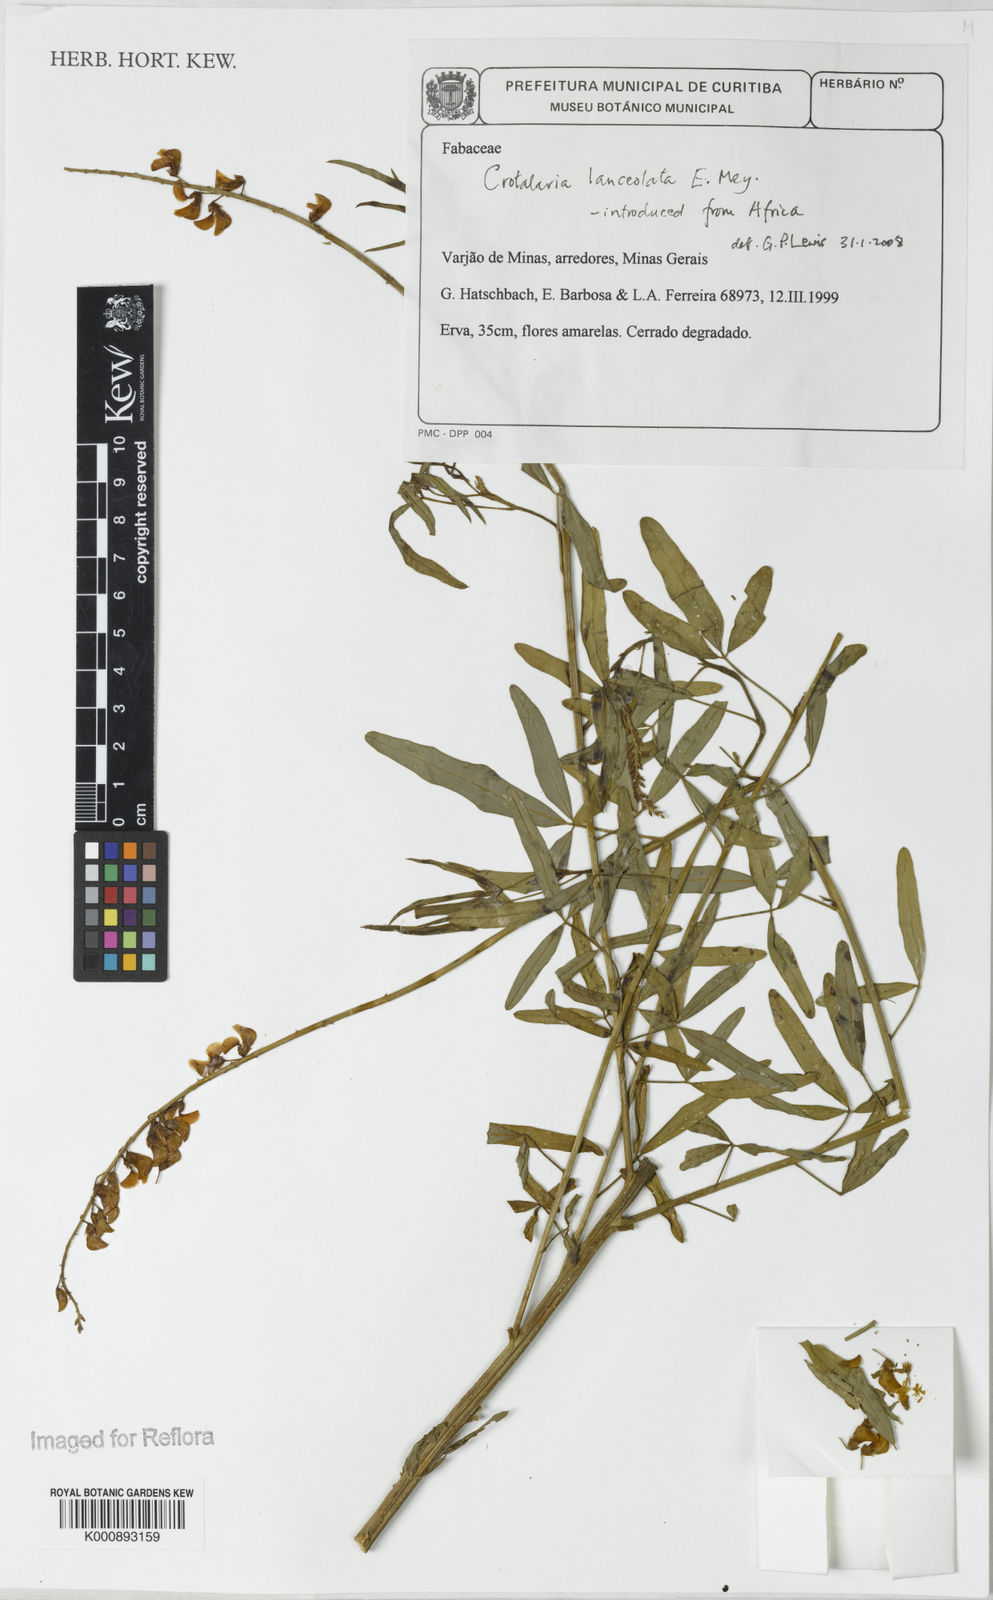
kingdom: Plantae
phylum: Tracheophyta
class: Magnoliopsida
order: Fabales
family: Fabaceae
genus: Crotalaria
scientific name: Crotalaria lanceolata
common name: Lanceleaf rattlebox
